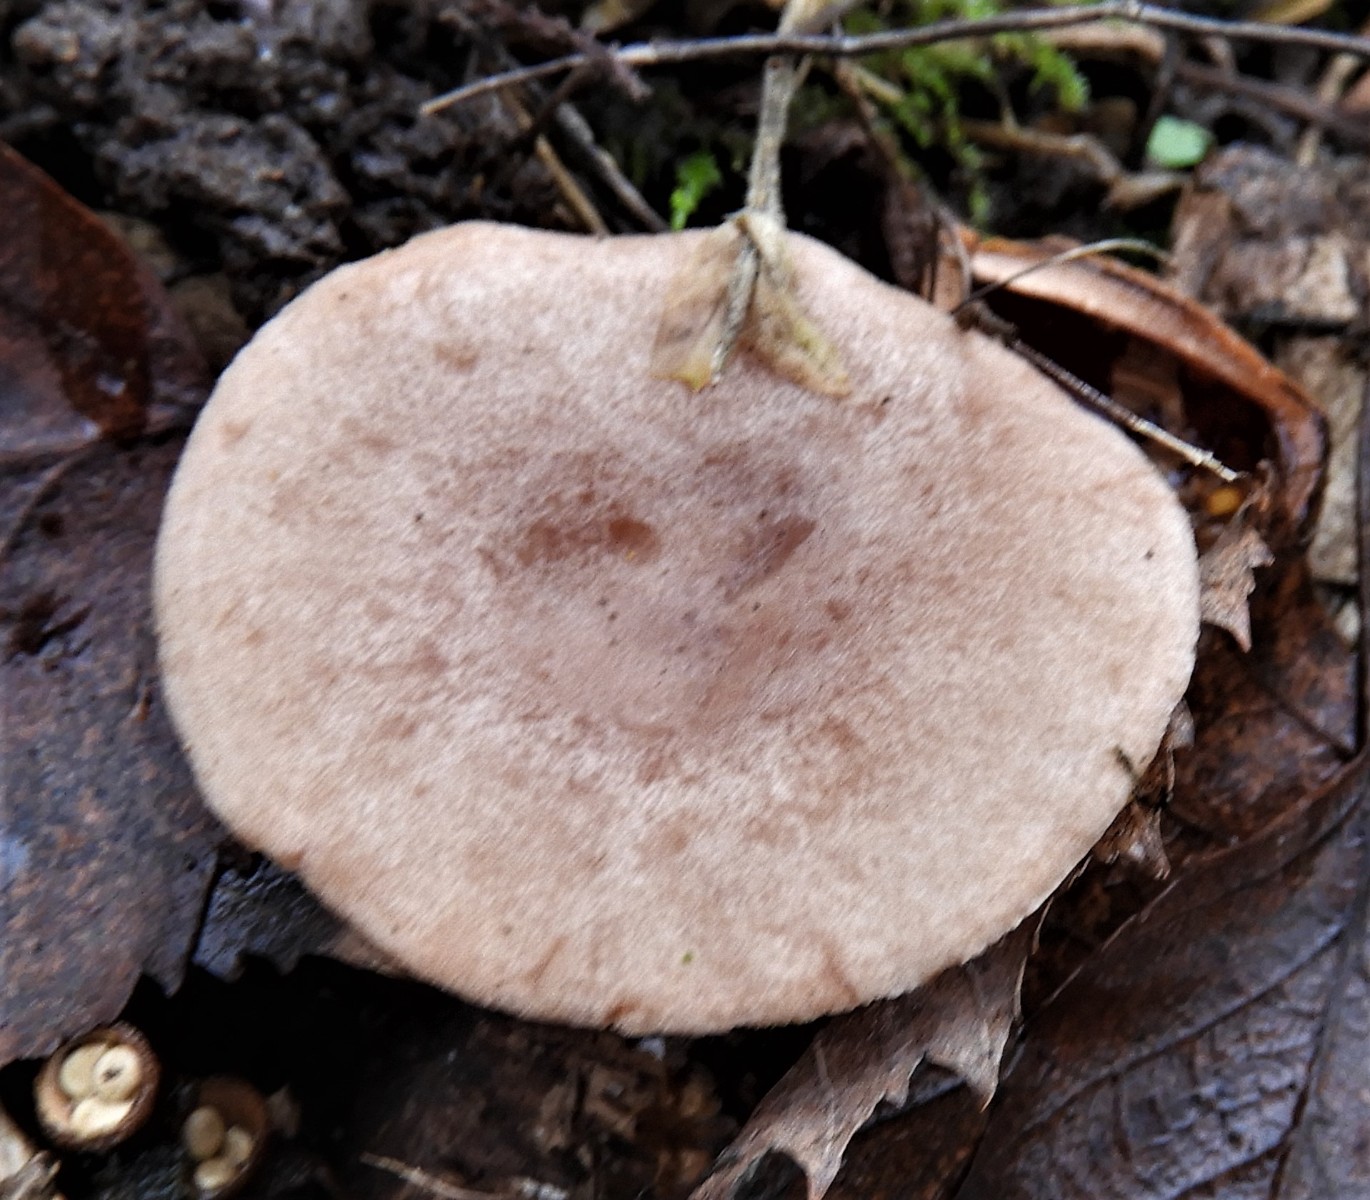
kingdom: Fungi
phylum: Basidiomycota
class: Agaricomycetes
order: Russulales
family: Russulaceae
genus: Lactarius
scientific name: Lactarius quietus
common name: ege-mælkehat
